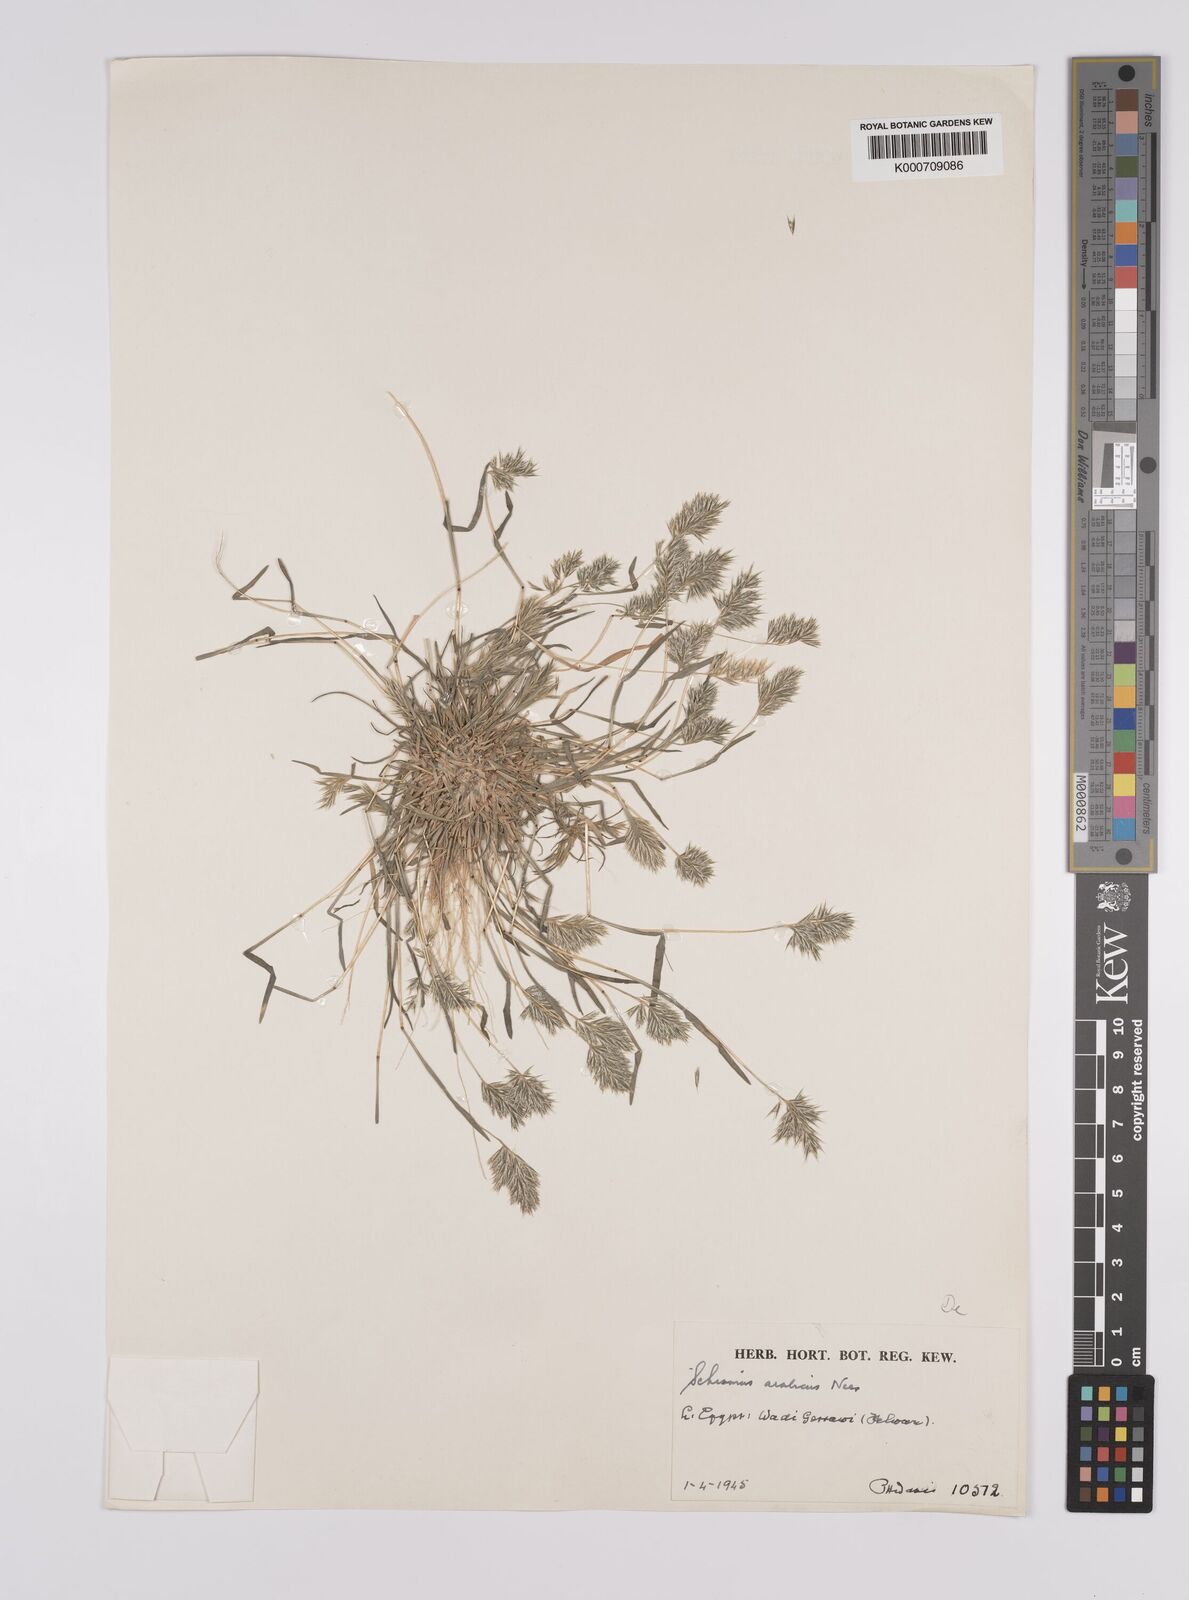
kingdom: Plantae
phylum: Tracheophyta
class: Liliopsida
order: Poales
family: Poaceae
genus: Schismus
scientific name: Schismus arabicus
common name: Arabian schismus
